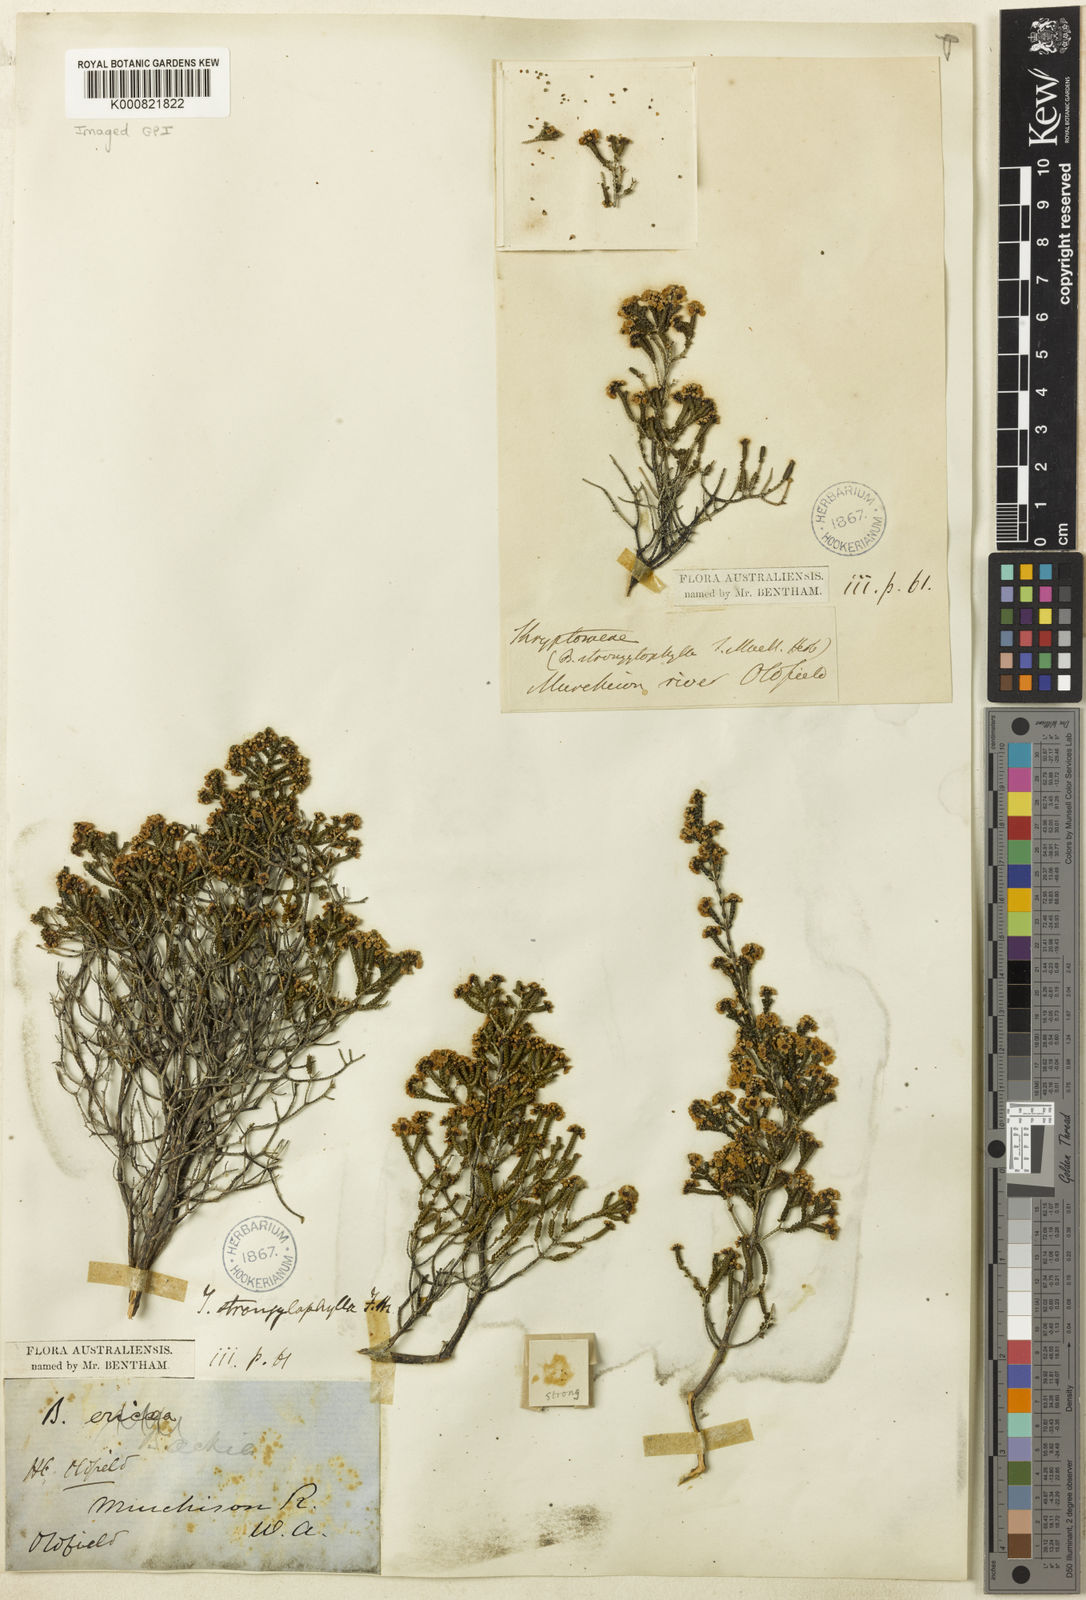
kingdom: Plantae
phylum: Tracheophyta
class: Magnoliopsida
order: Myrtales
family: Myrtaceae
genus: Thryptomene
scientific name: Thryptomene strongylophylla
